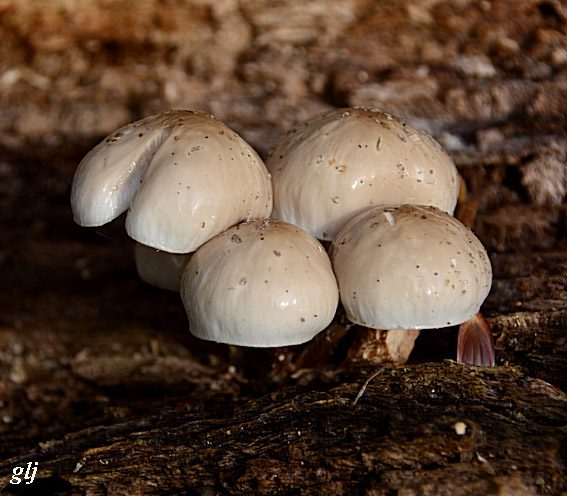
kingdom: Fungi
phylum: Basidiomycota
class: Agaricomycetes
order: Agaricales
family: Physalacriaceae
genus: Mucidula
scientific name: Mucidula mucida
